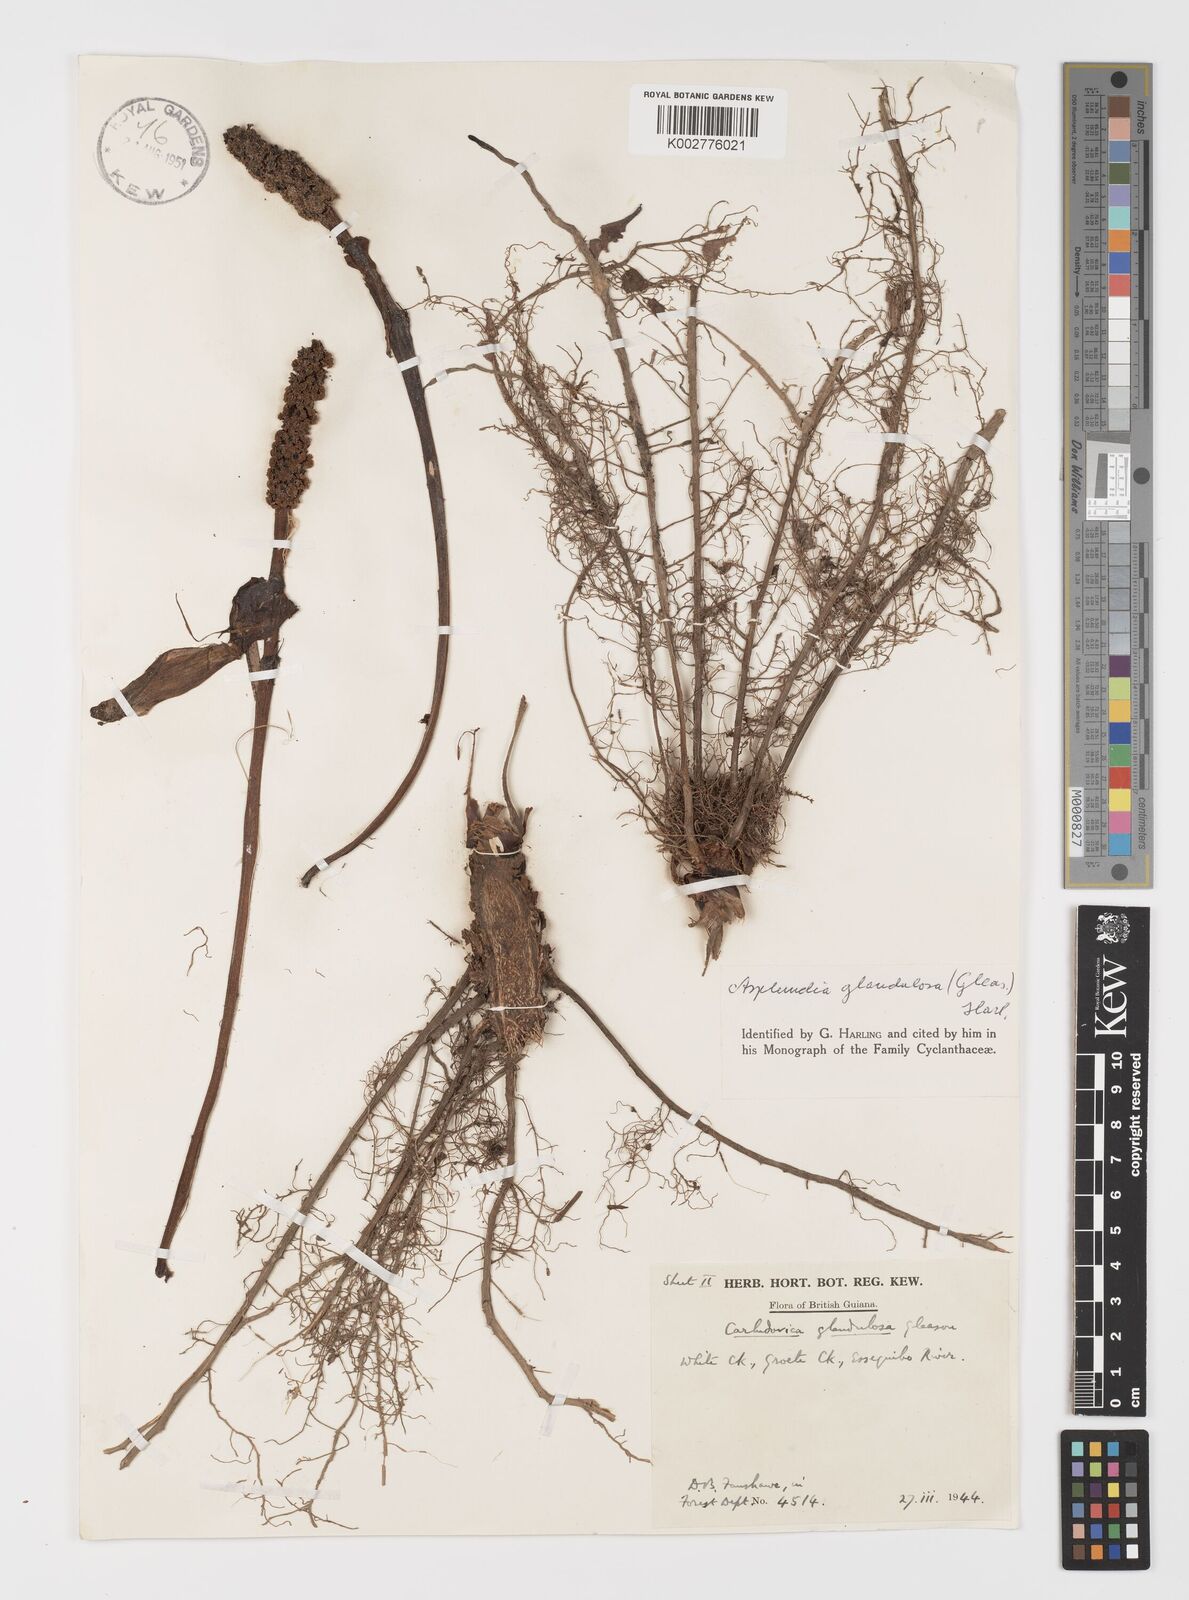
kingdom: Plantae
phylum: Tracheophyta
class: Liliopsida
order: Pandanales
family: Cyclanthaceae
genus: Asplundia
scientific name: Asplundia glandulosa
